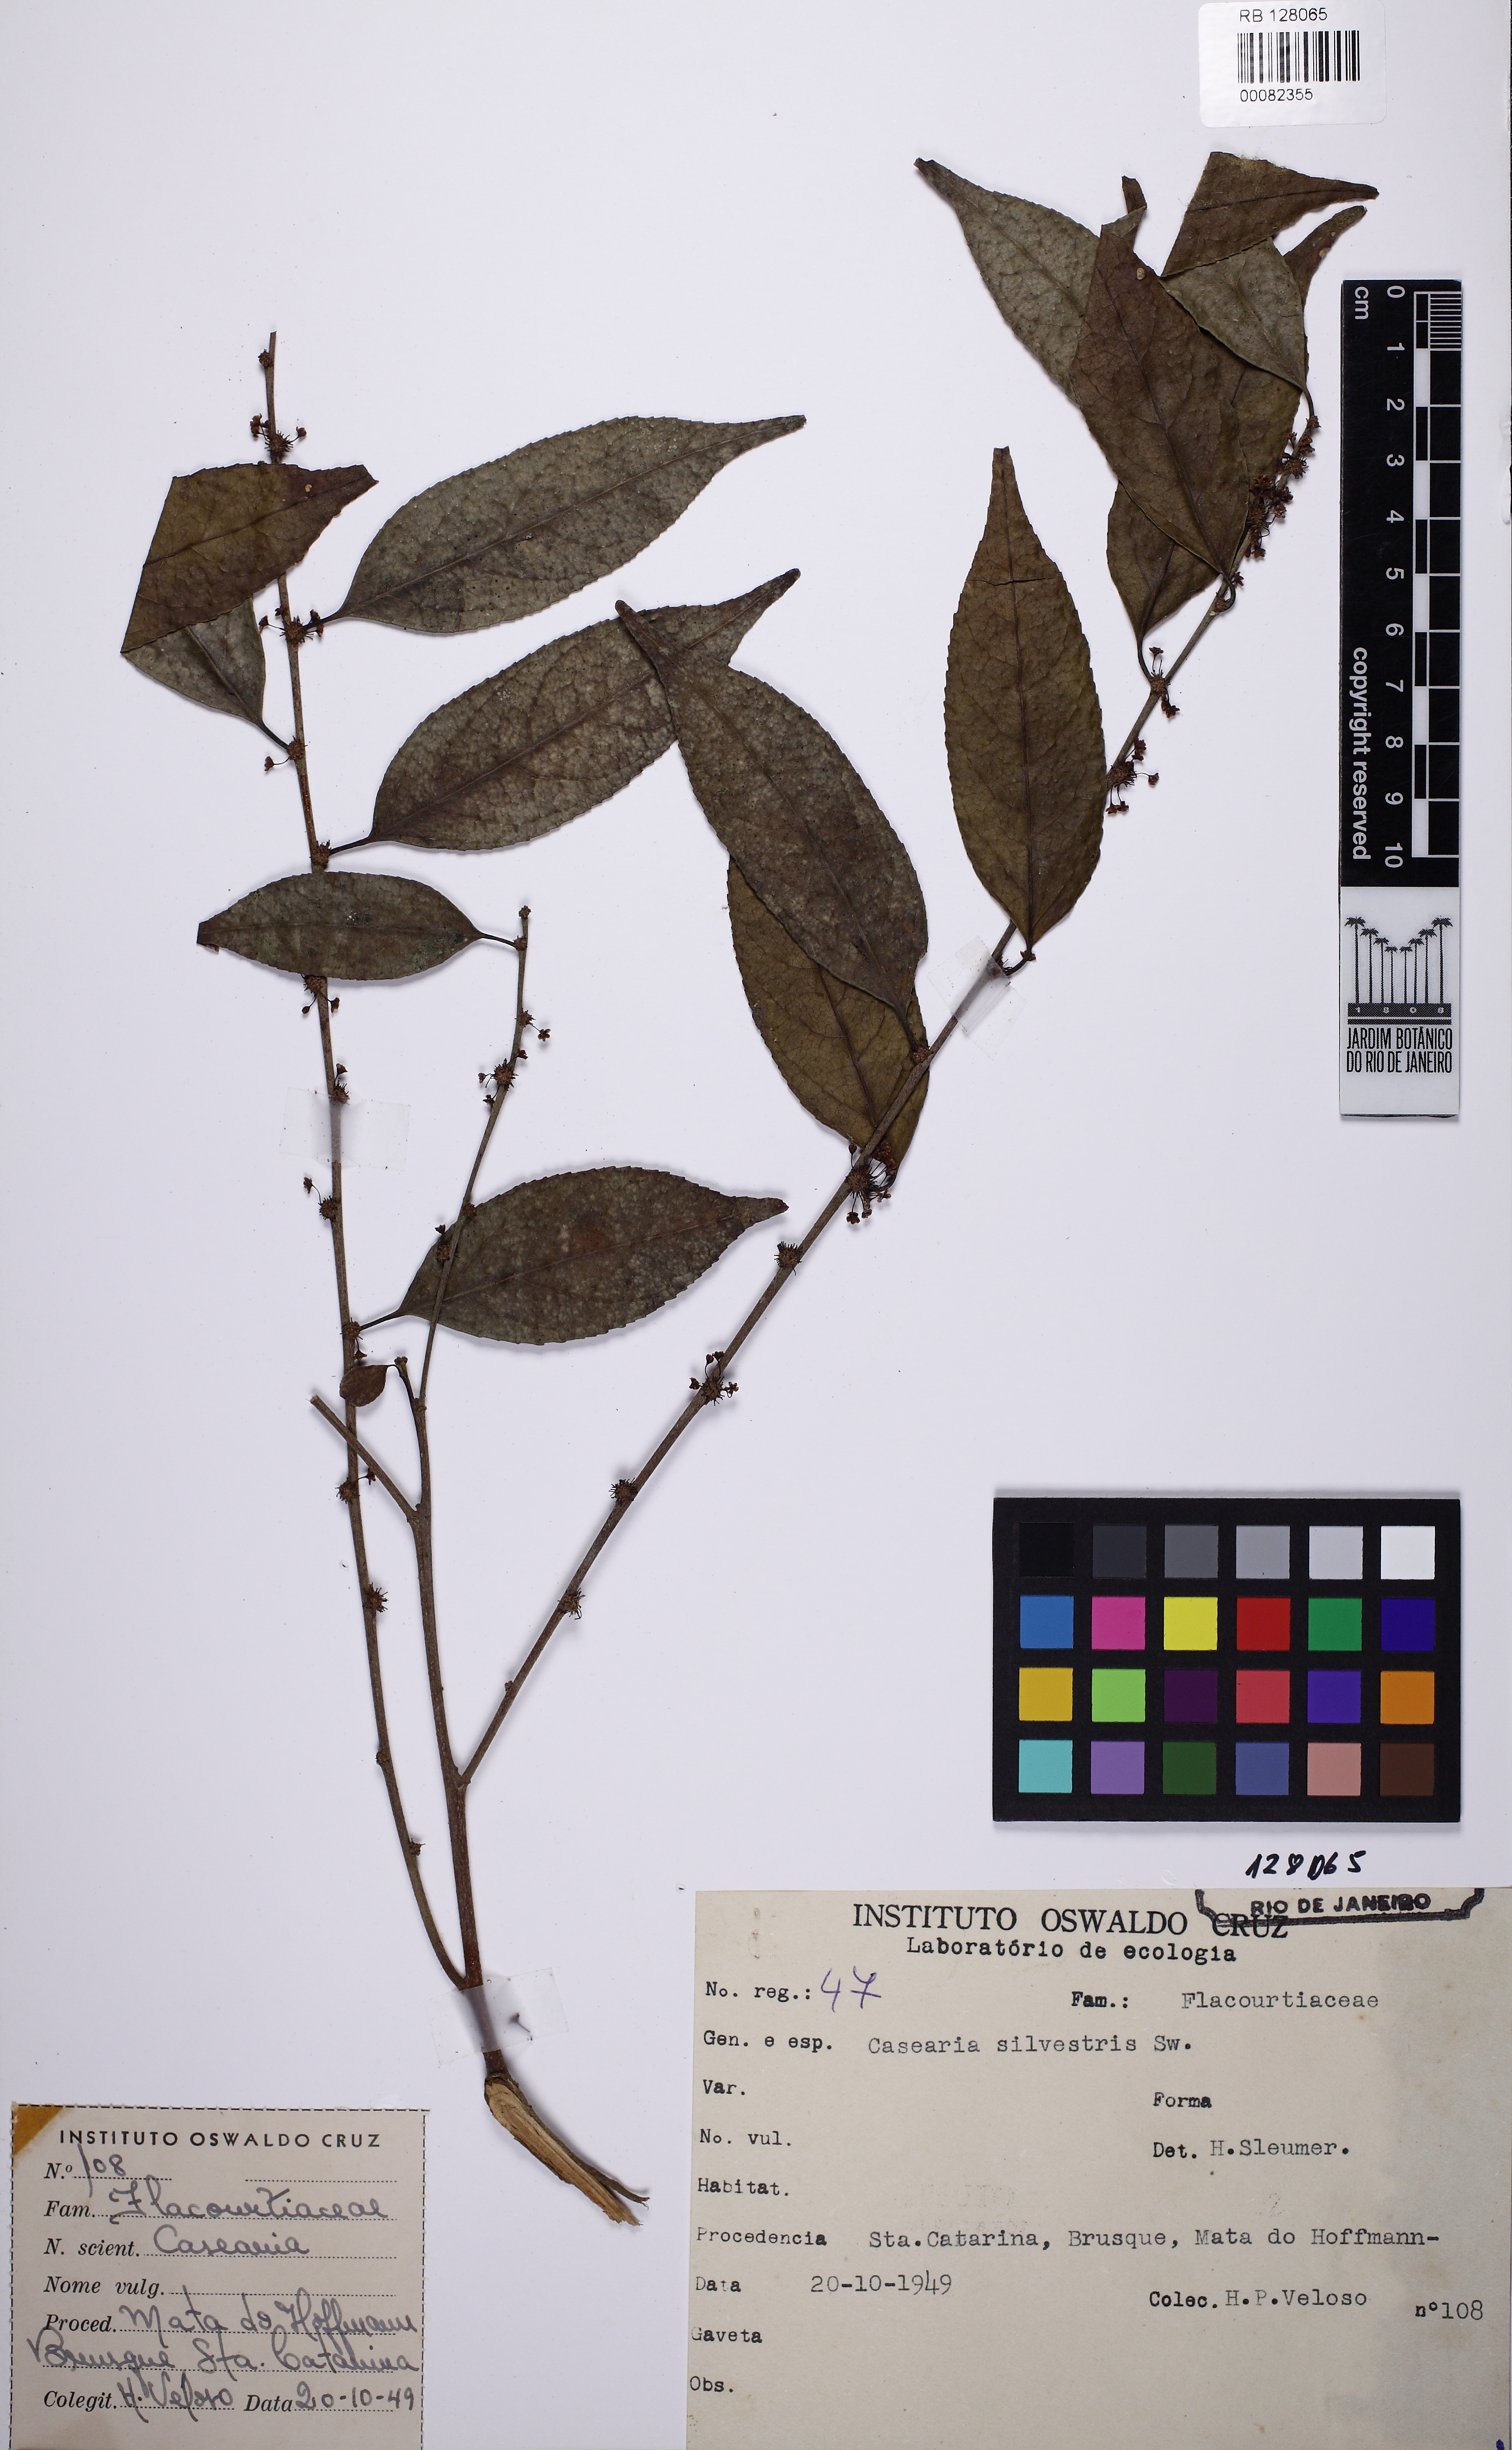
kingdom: Plantae
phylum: Tracheophyta
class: Magnoliopsida
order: Malpighiales
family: Salicaceae
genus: Casearia
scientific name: Casearia sylvestris
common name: Wild sage
